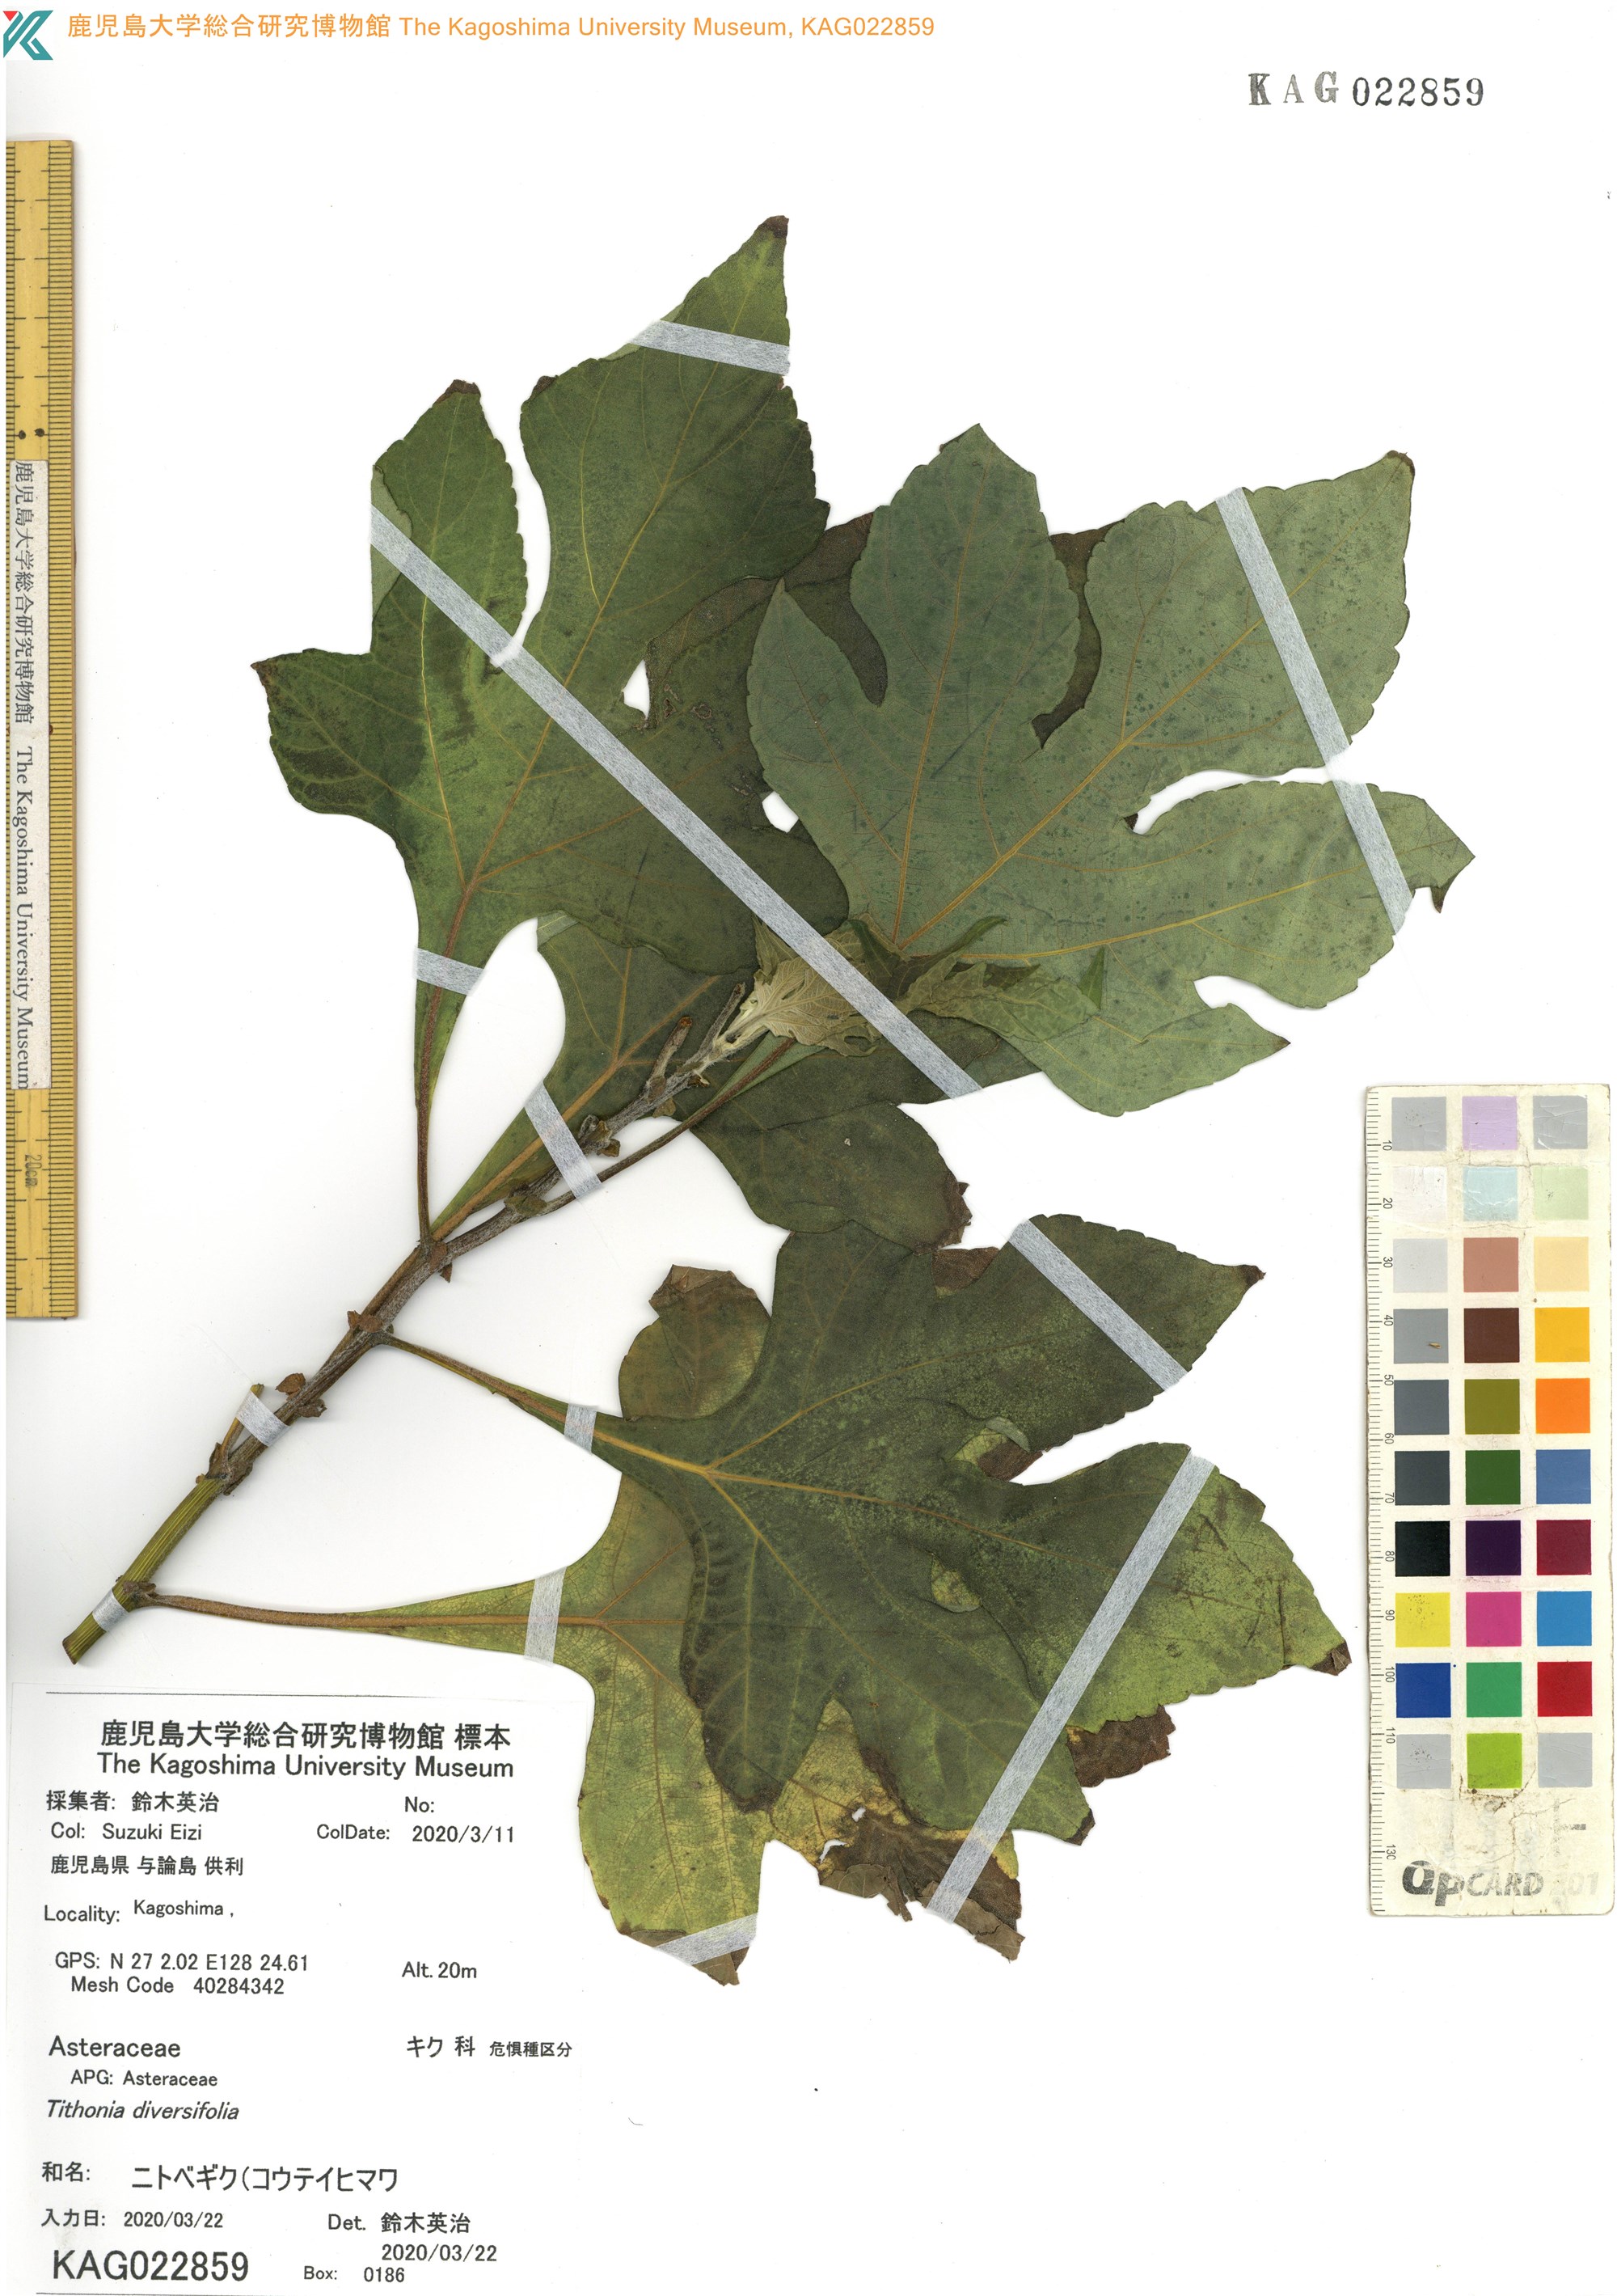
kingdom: Plantae
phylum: Tracheophyta
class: Magnoliopsida
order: Asterales
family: Asteraceae
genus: Tithonia
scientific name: Tithonia diversifolia
